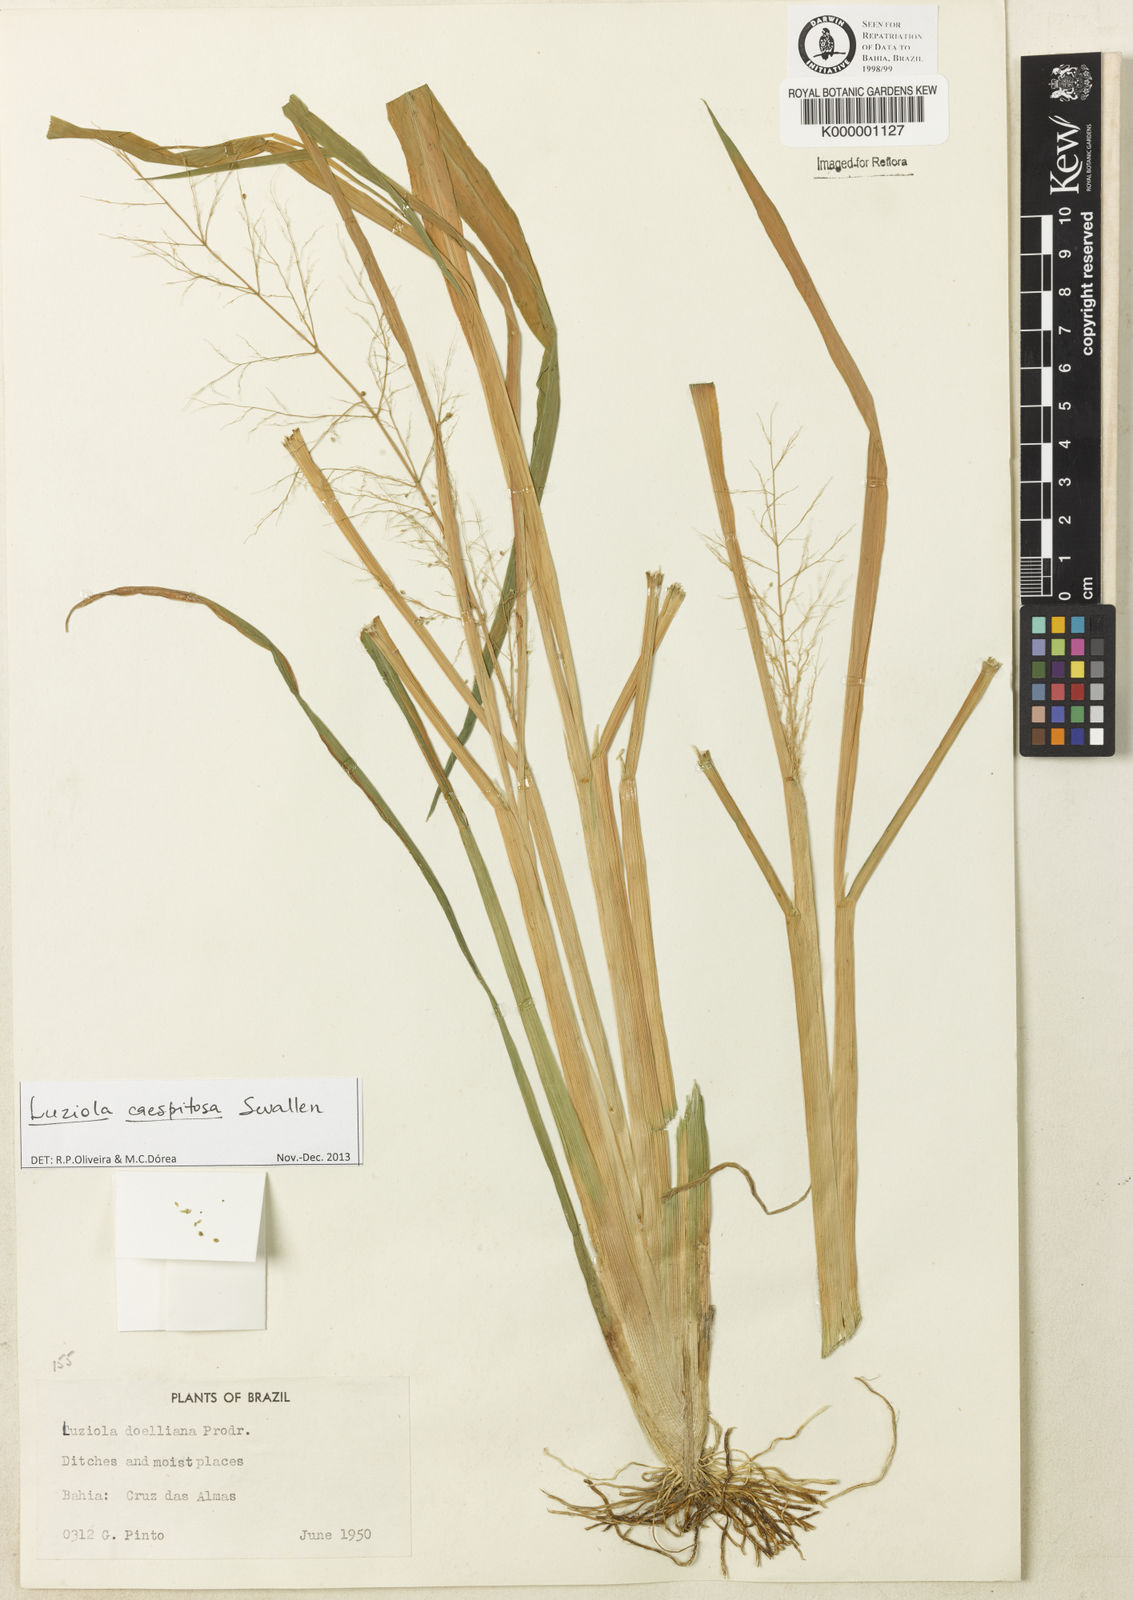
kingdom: Plantae
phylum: Tracheophyta
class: Liliopsida
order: Poales
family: Poaceae
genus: Luziola
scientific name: Luziola caespitosa
